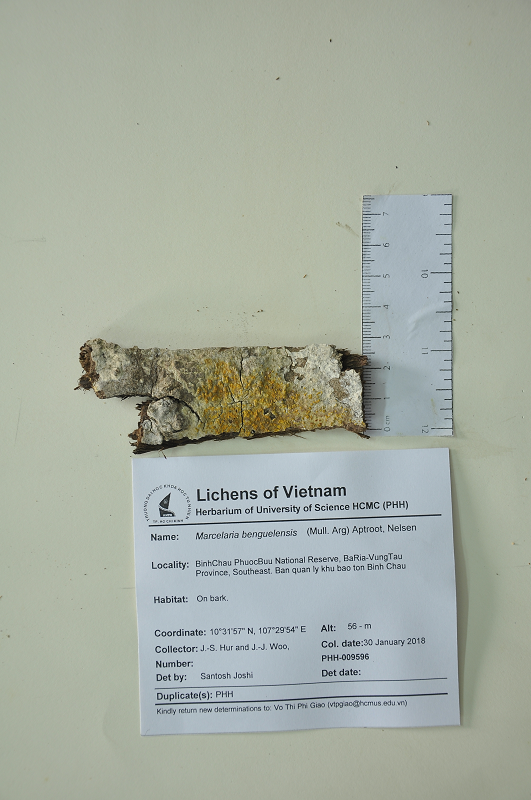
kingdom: Fungi
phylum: Ascomycota
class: Dothideomycetes
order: Trypetheliales
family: Trypetheliaceae
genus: Marcelaria
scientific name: Marcelaria benguelensis
